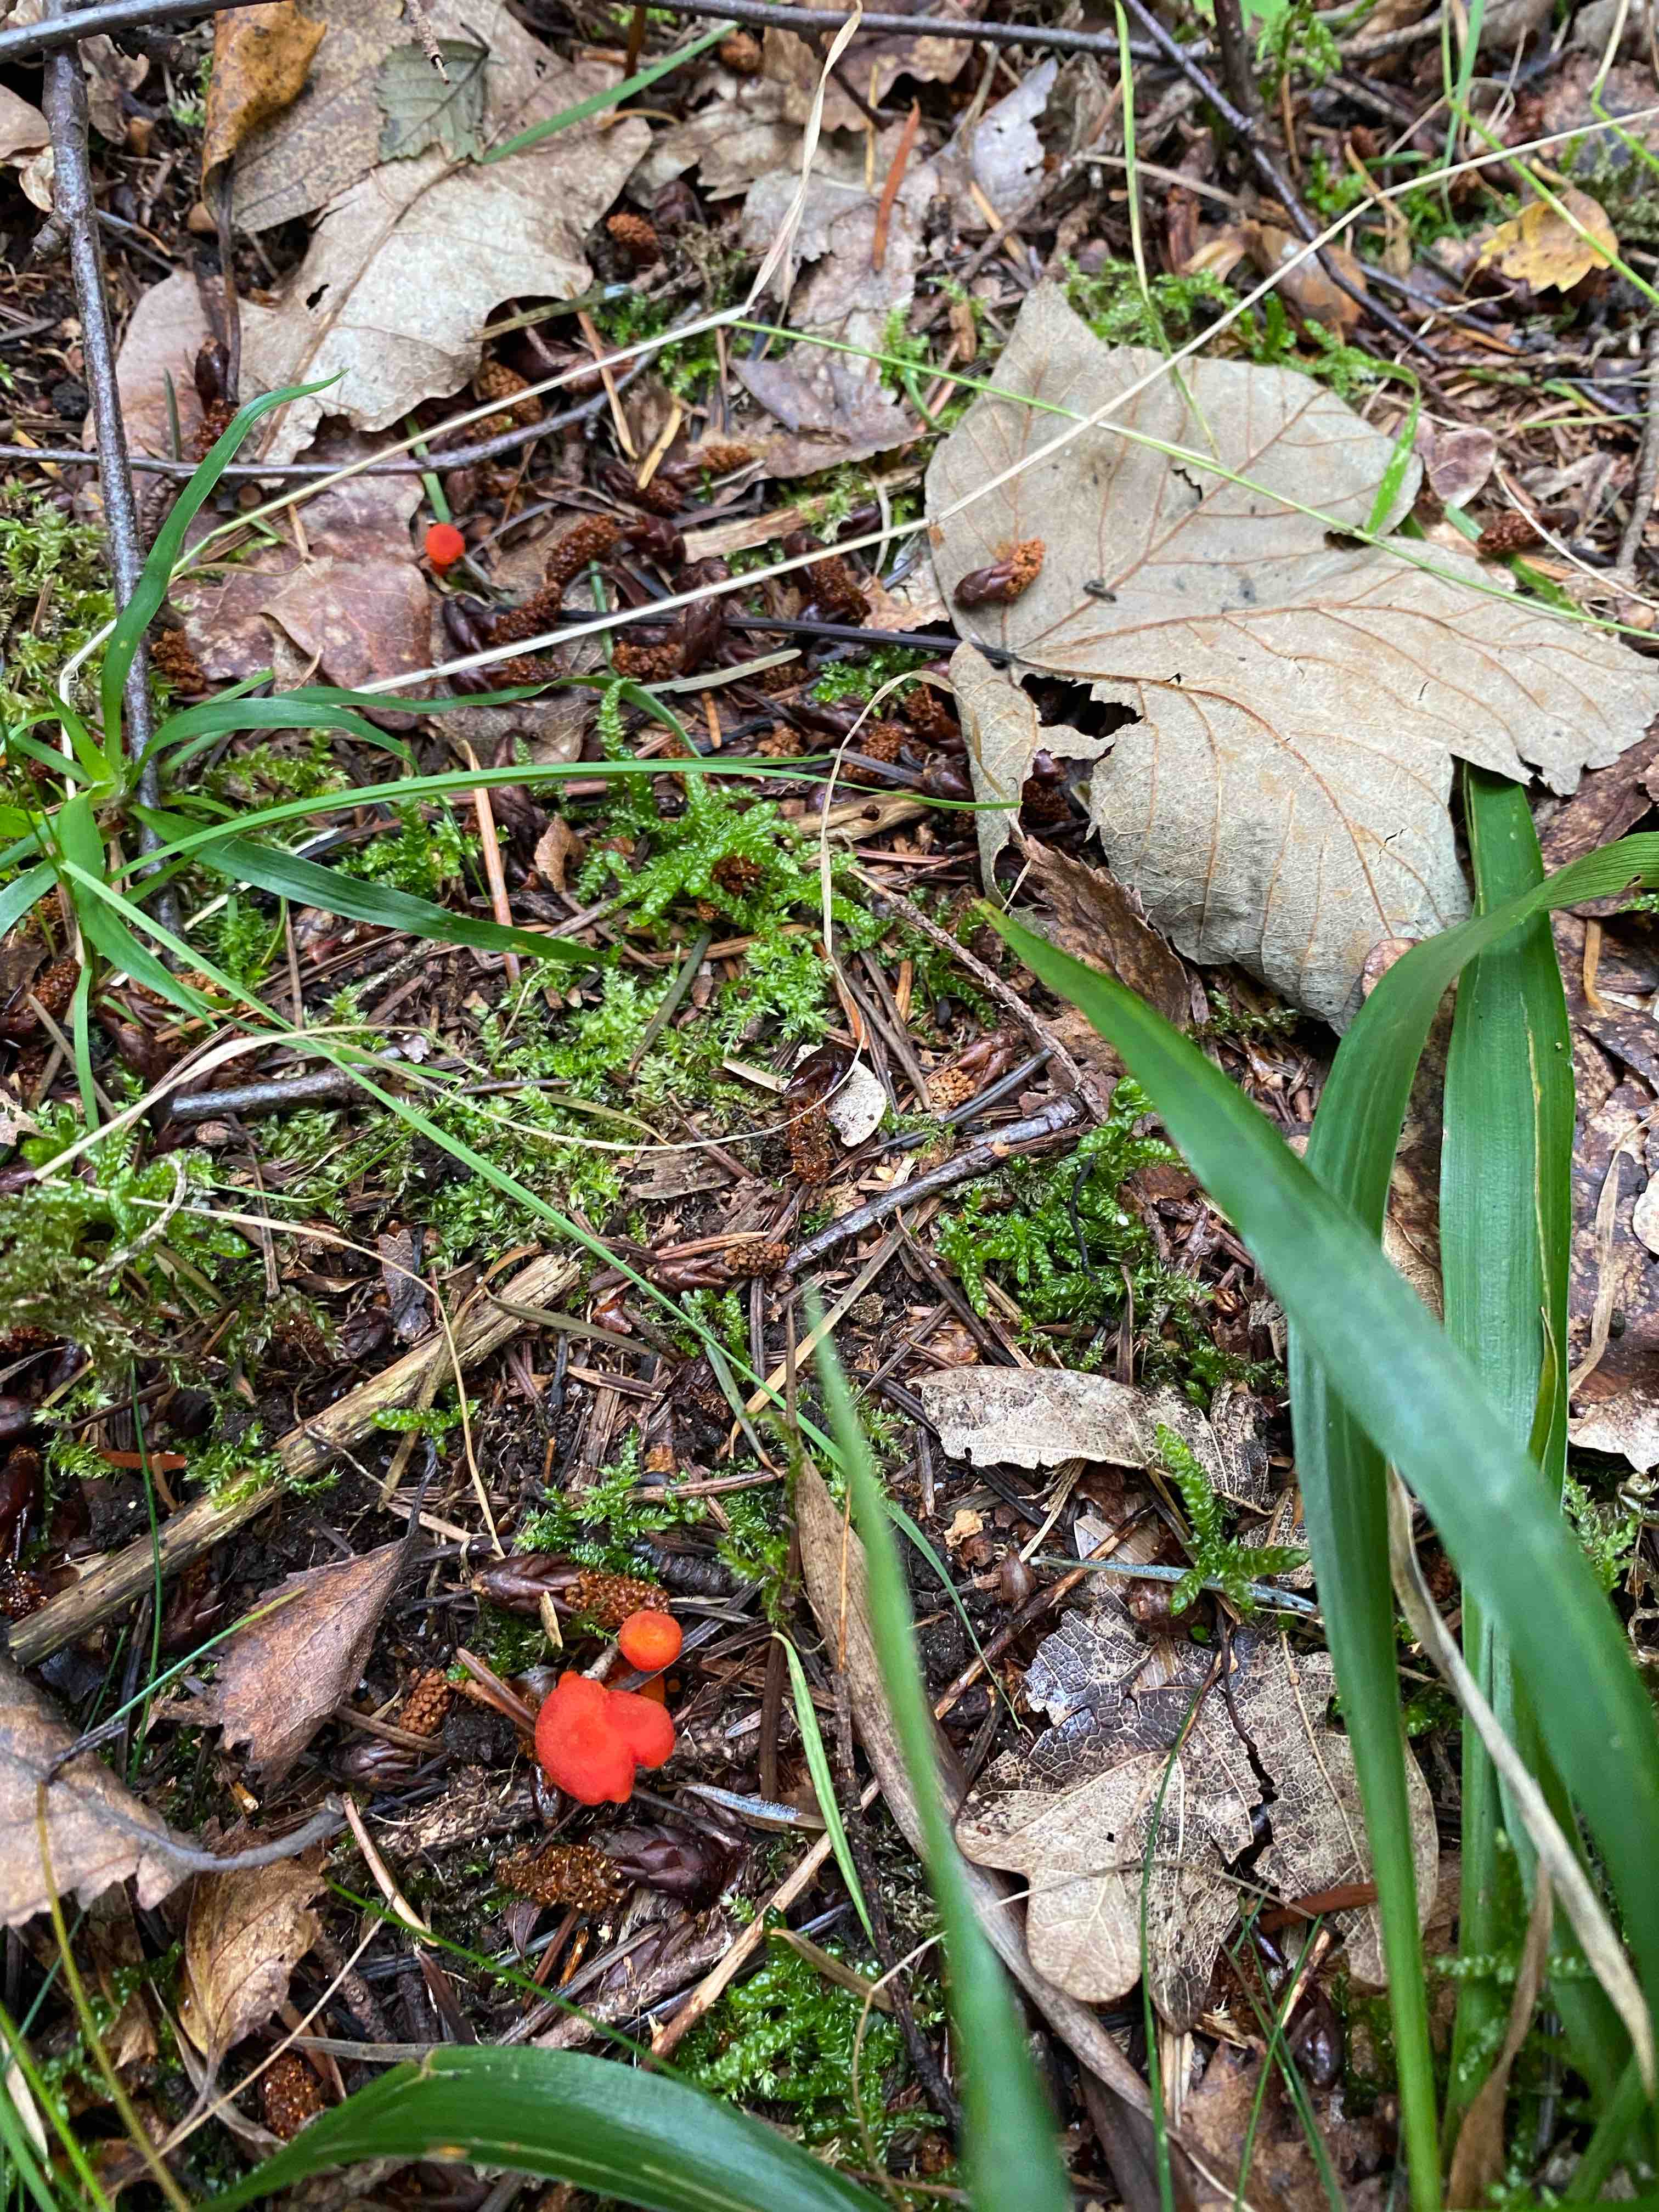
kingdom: Fungi
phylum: Basidiomycota
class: Agaricomycetes
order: Agaricales
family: Hygrophoraceae
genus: Hygrocybe
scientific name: Hygrocybe miniata
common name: mønje-vokshat
